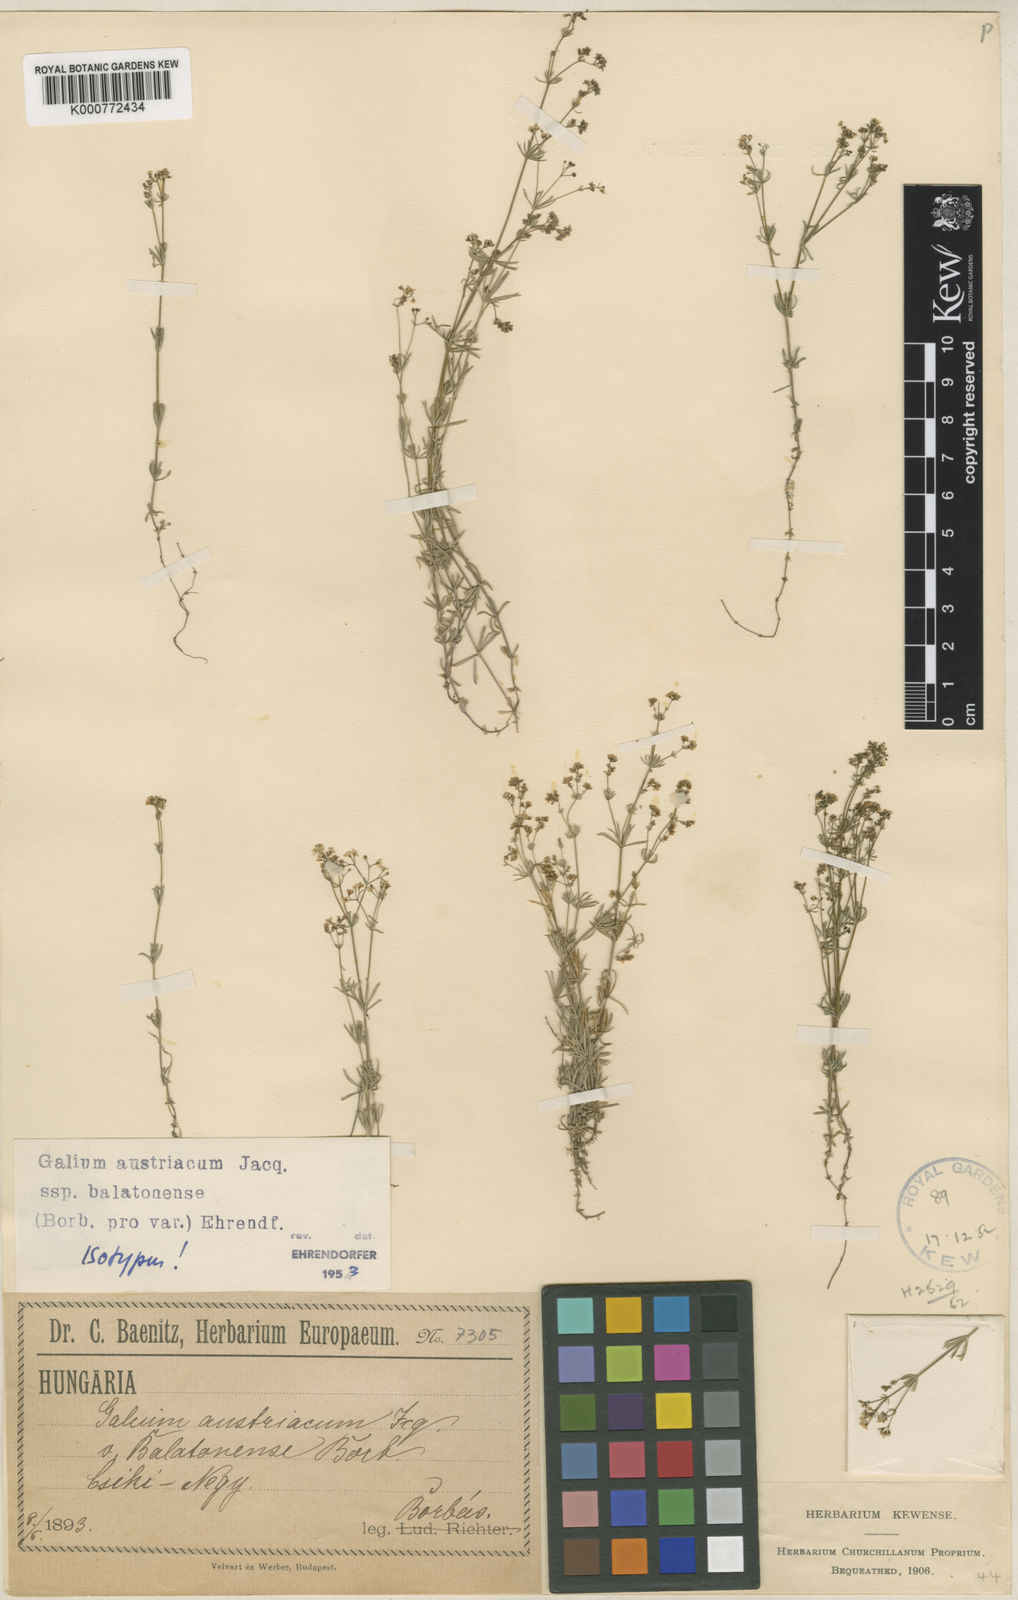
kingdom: Plantae
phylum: Tracheophyta
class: Magnoliopsida
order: Gentianales
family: Rubiaceae
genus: Galium
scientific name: Galium austriacum
